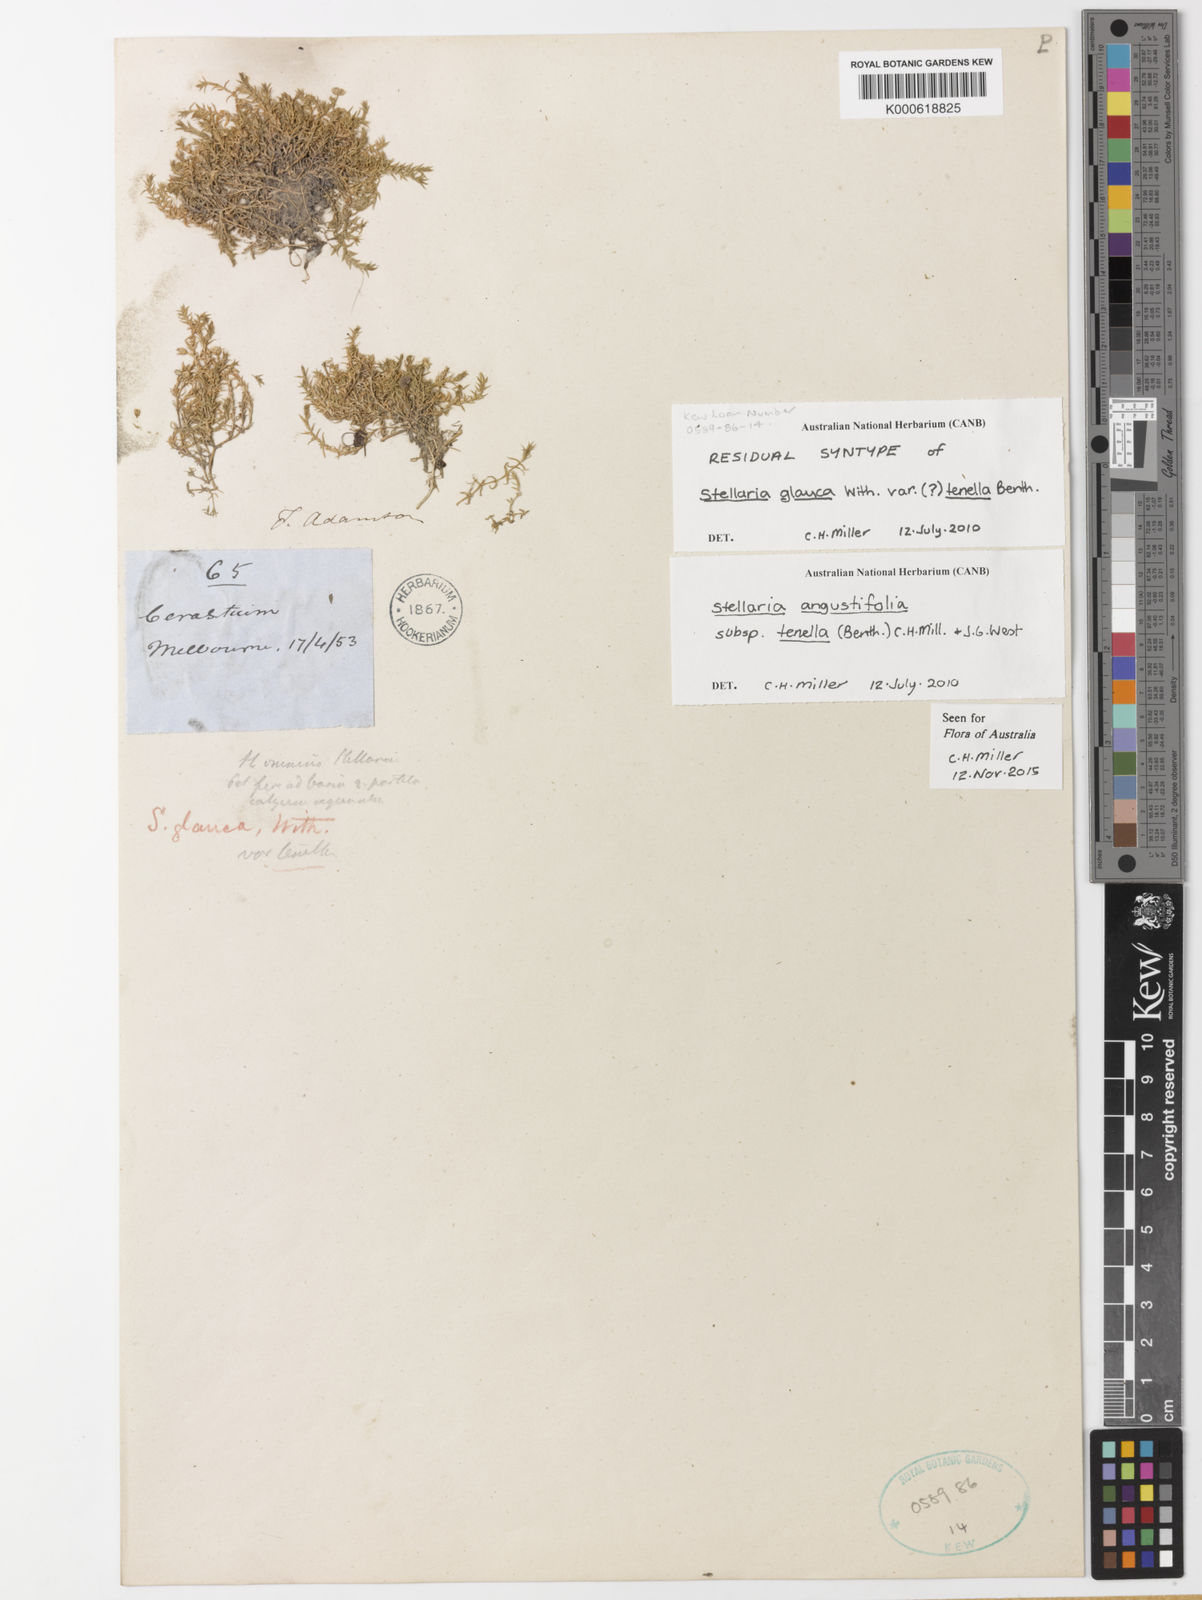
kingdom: Plantae
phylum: Tracheophyta
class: Magnoliopsida
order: Caryophyllales
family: Caryophyllaceae
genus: Stellaria
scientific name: Stellaria
